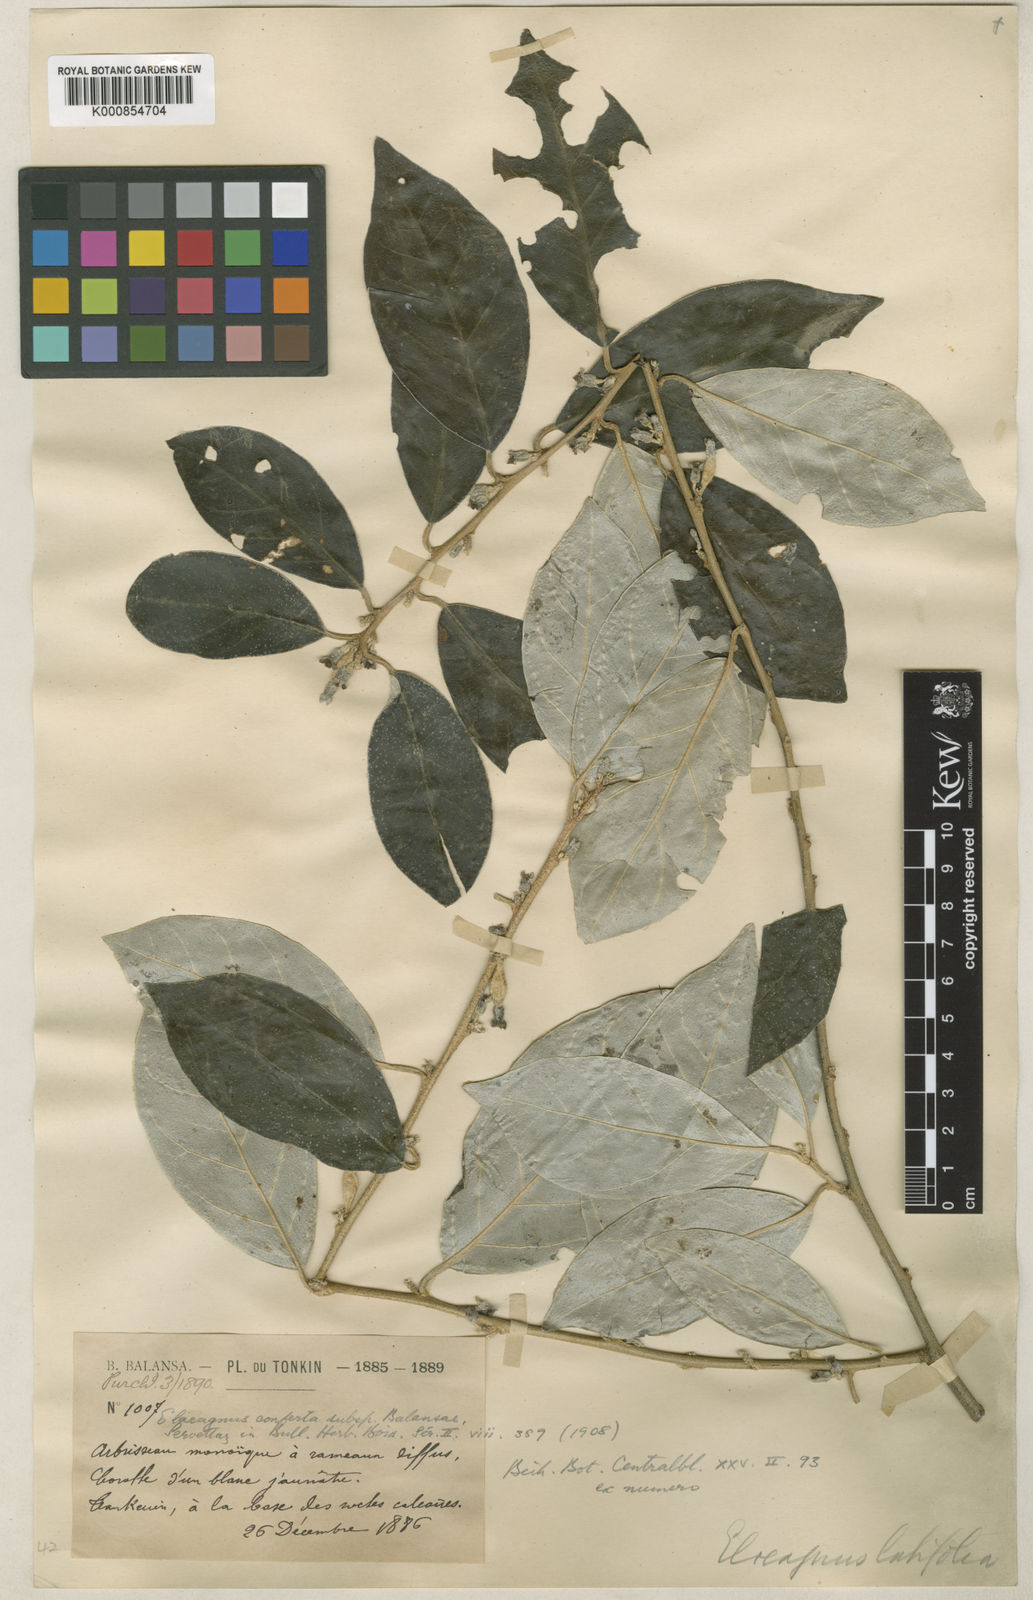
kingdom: Plantae
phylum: Tracheophyta
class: Magnoliopsida
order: Rosales
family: Elaeagnaceae
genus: Elaeagnus
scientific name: Elaeagnus conferta
